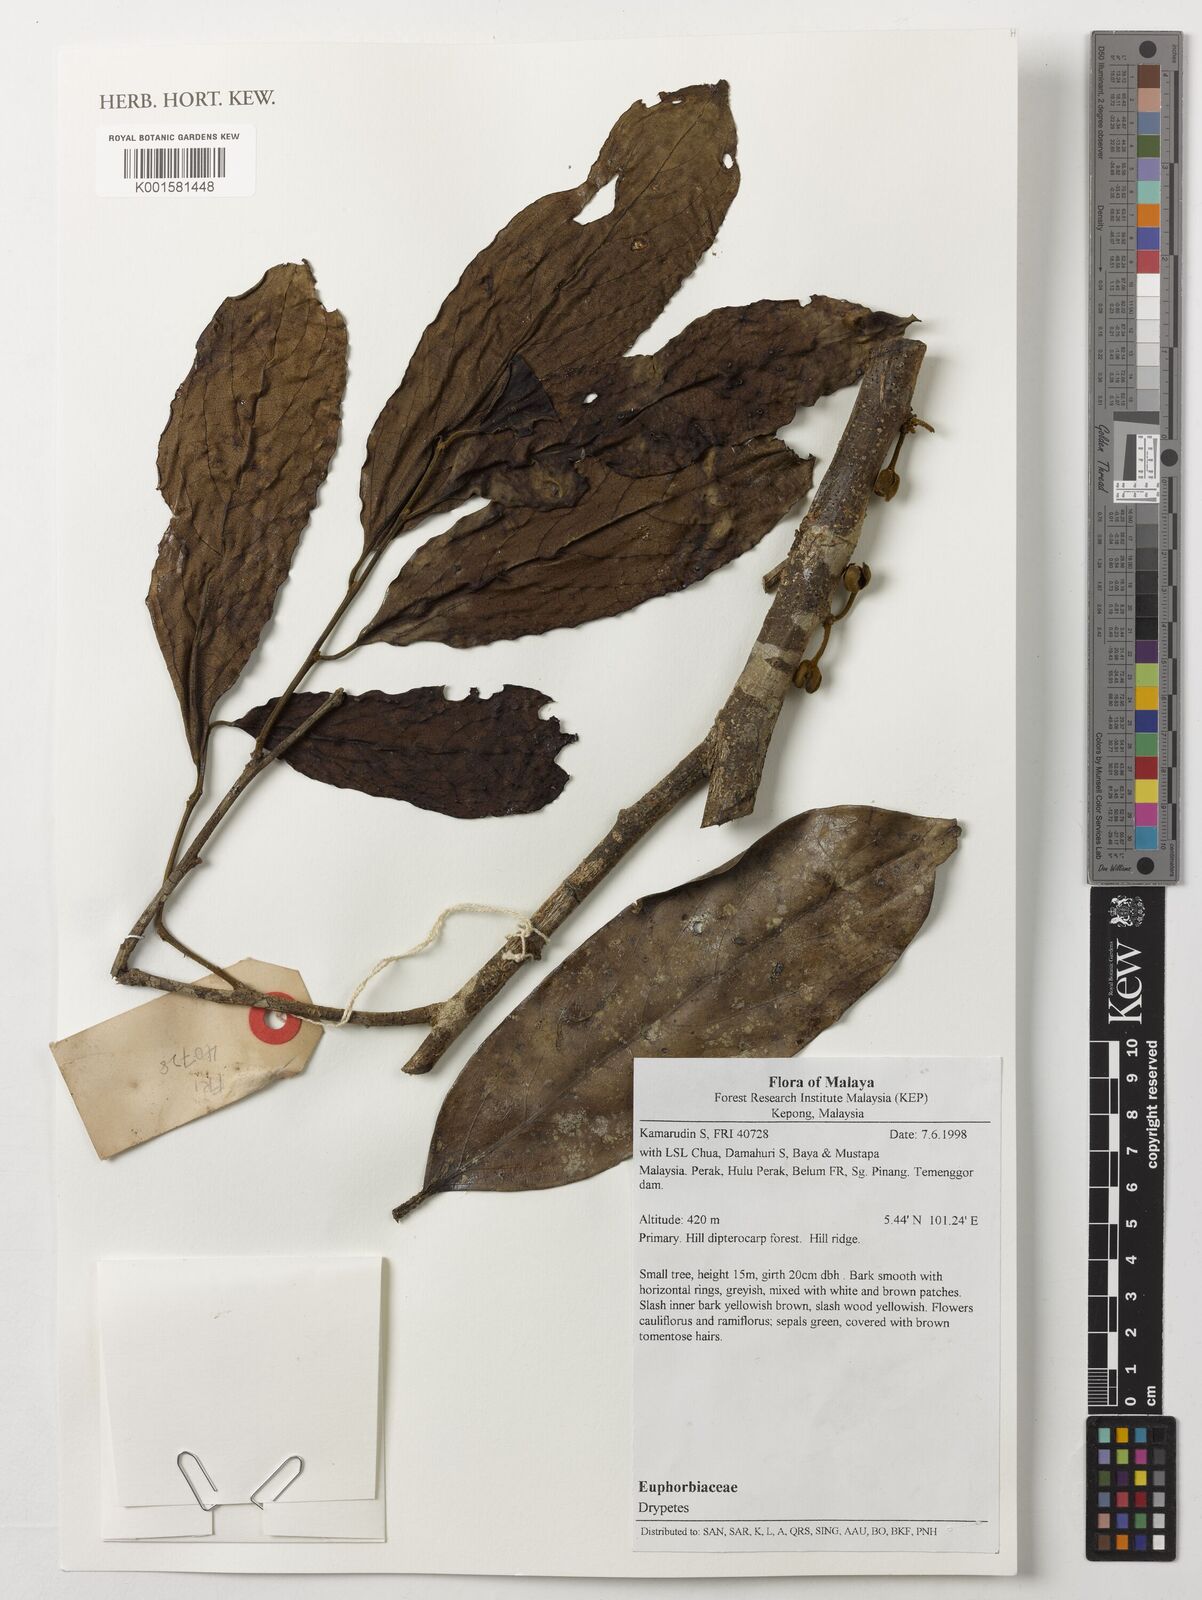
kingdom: Plantae
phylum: Tracheophyta
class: Magnoliopsida
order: Malpighiales
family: Putranjivaceae
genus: Drypetes
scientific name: Drypetes
